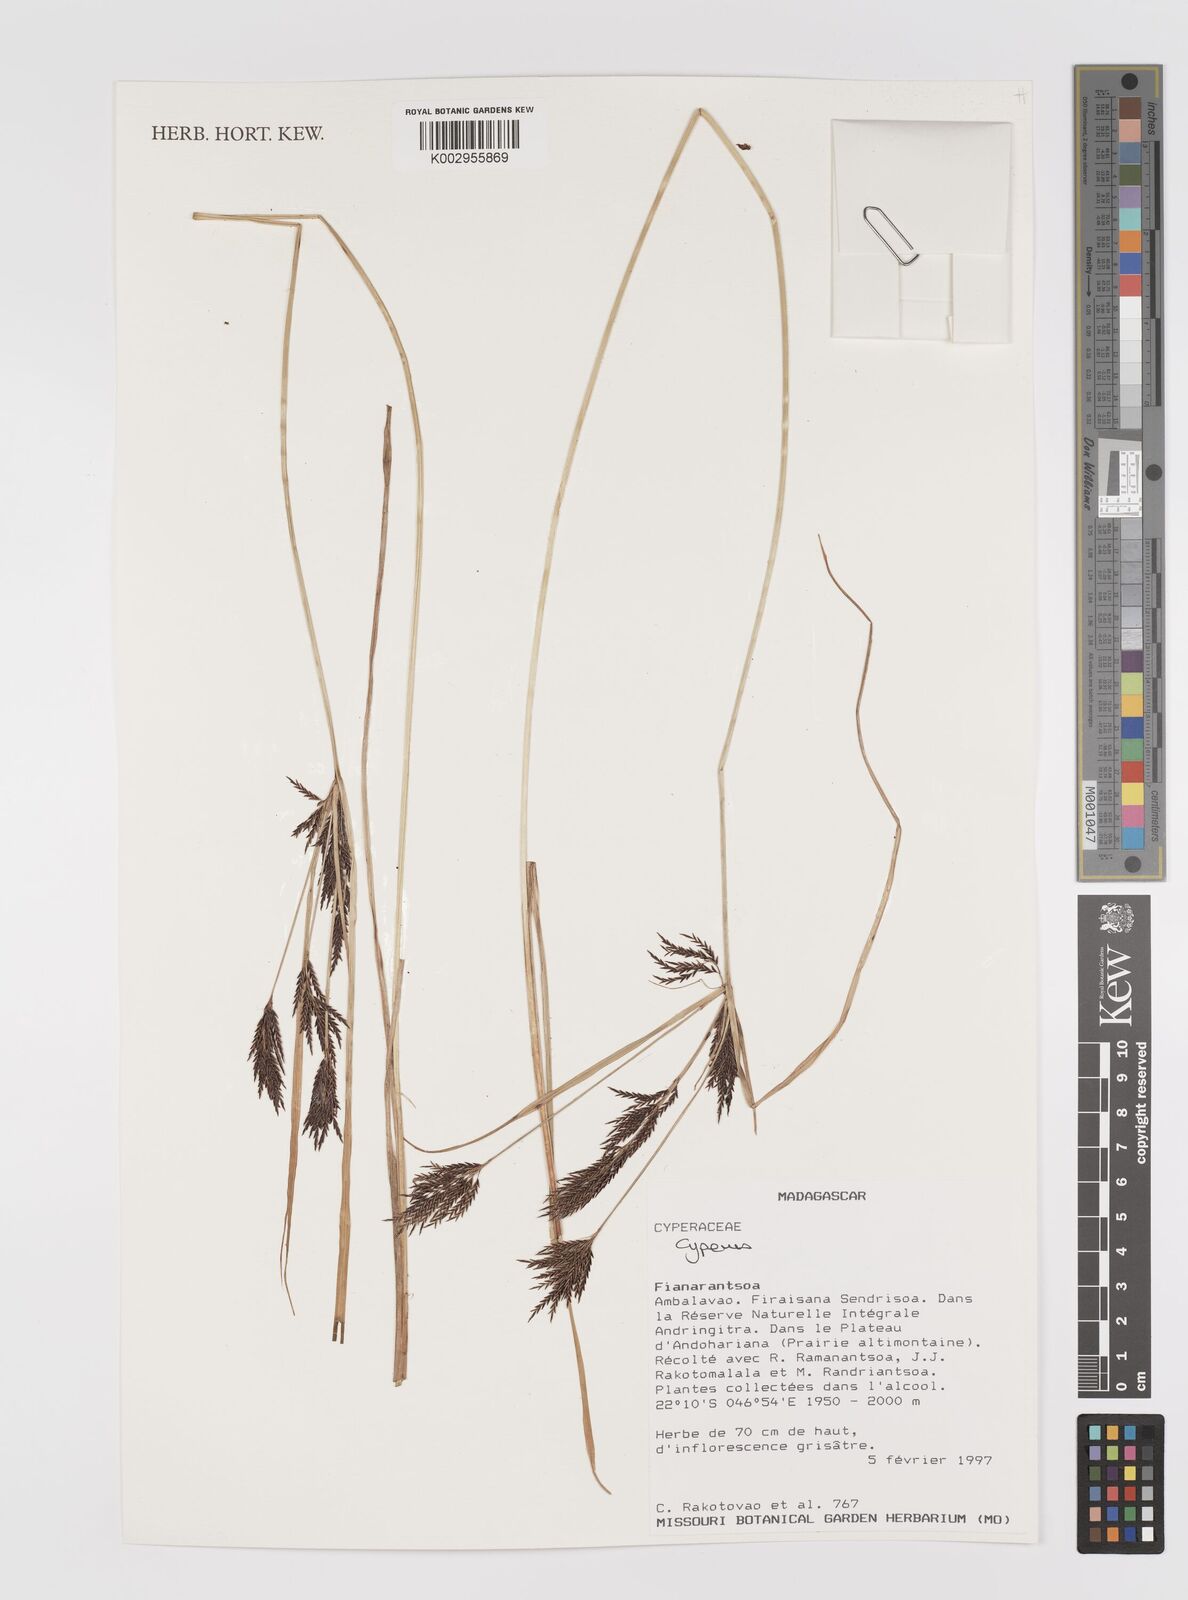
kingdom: Plantae
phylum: Tracheophyta
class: Liliopsida
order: Poales
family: Cyperaceae
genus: Cyperus
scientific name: Cyperus
